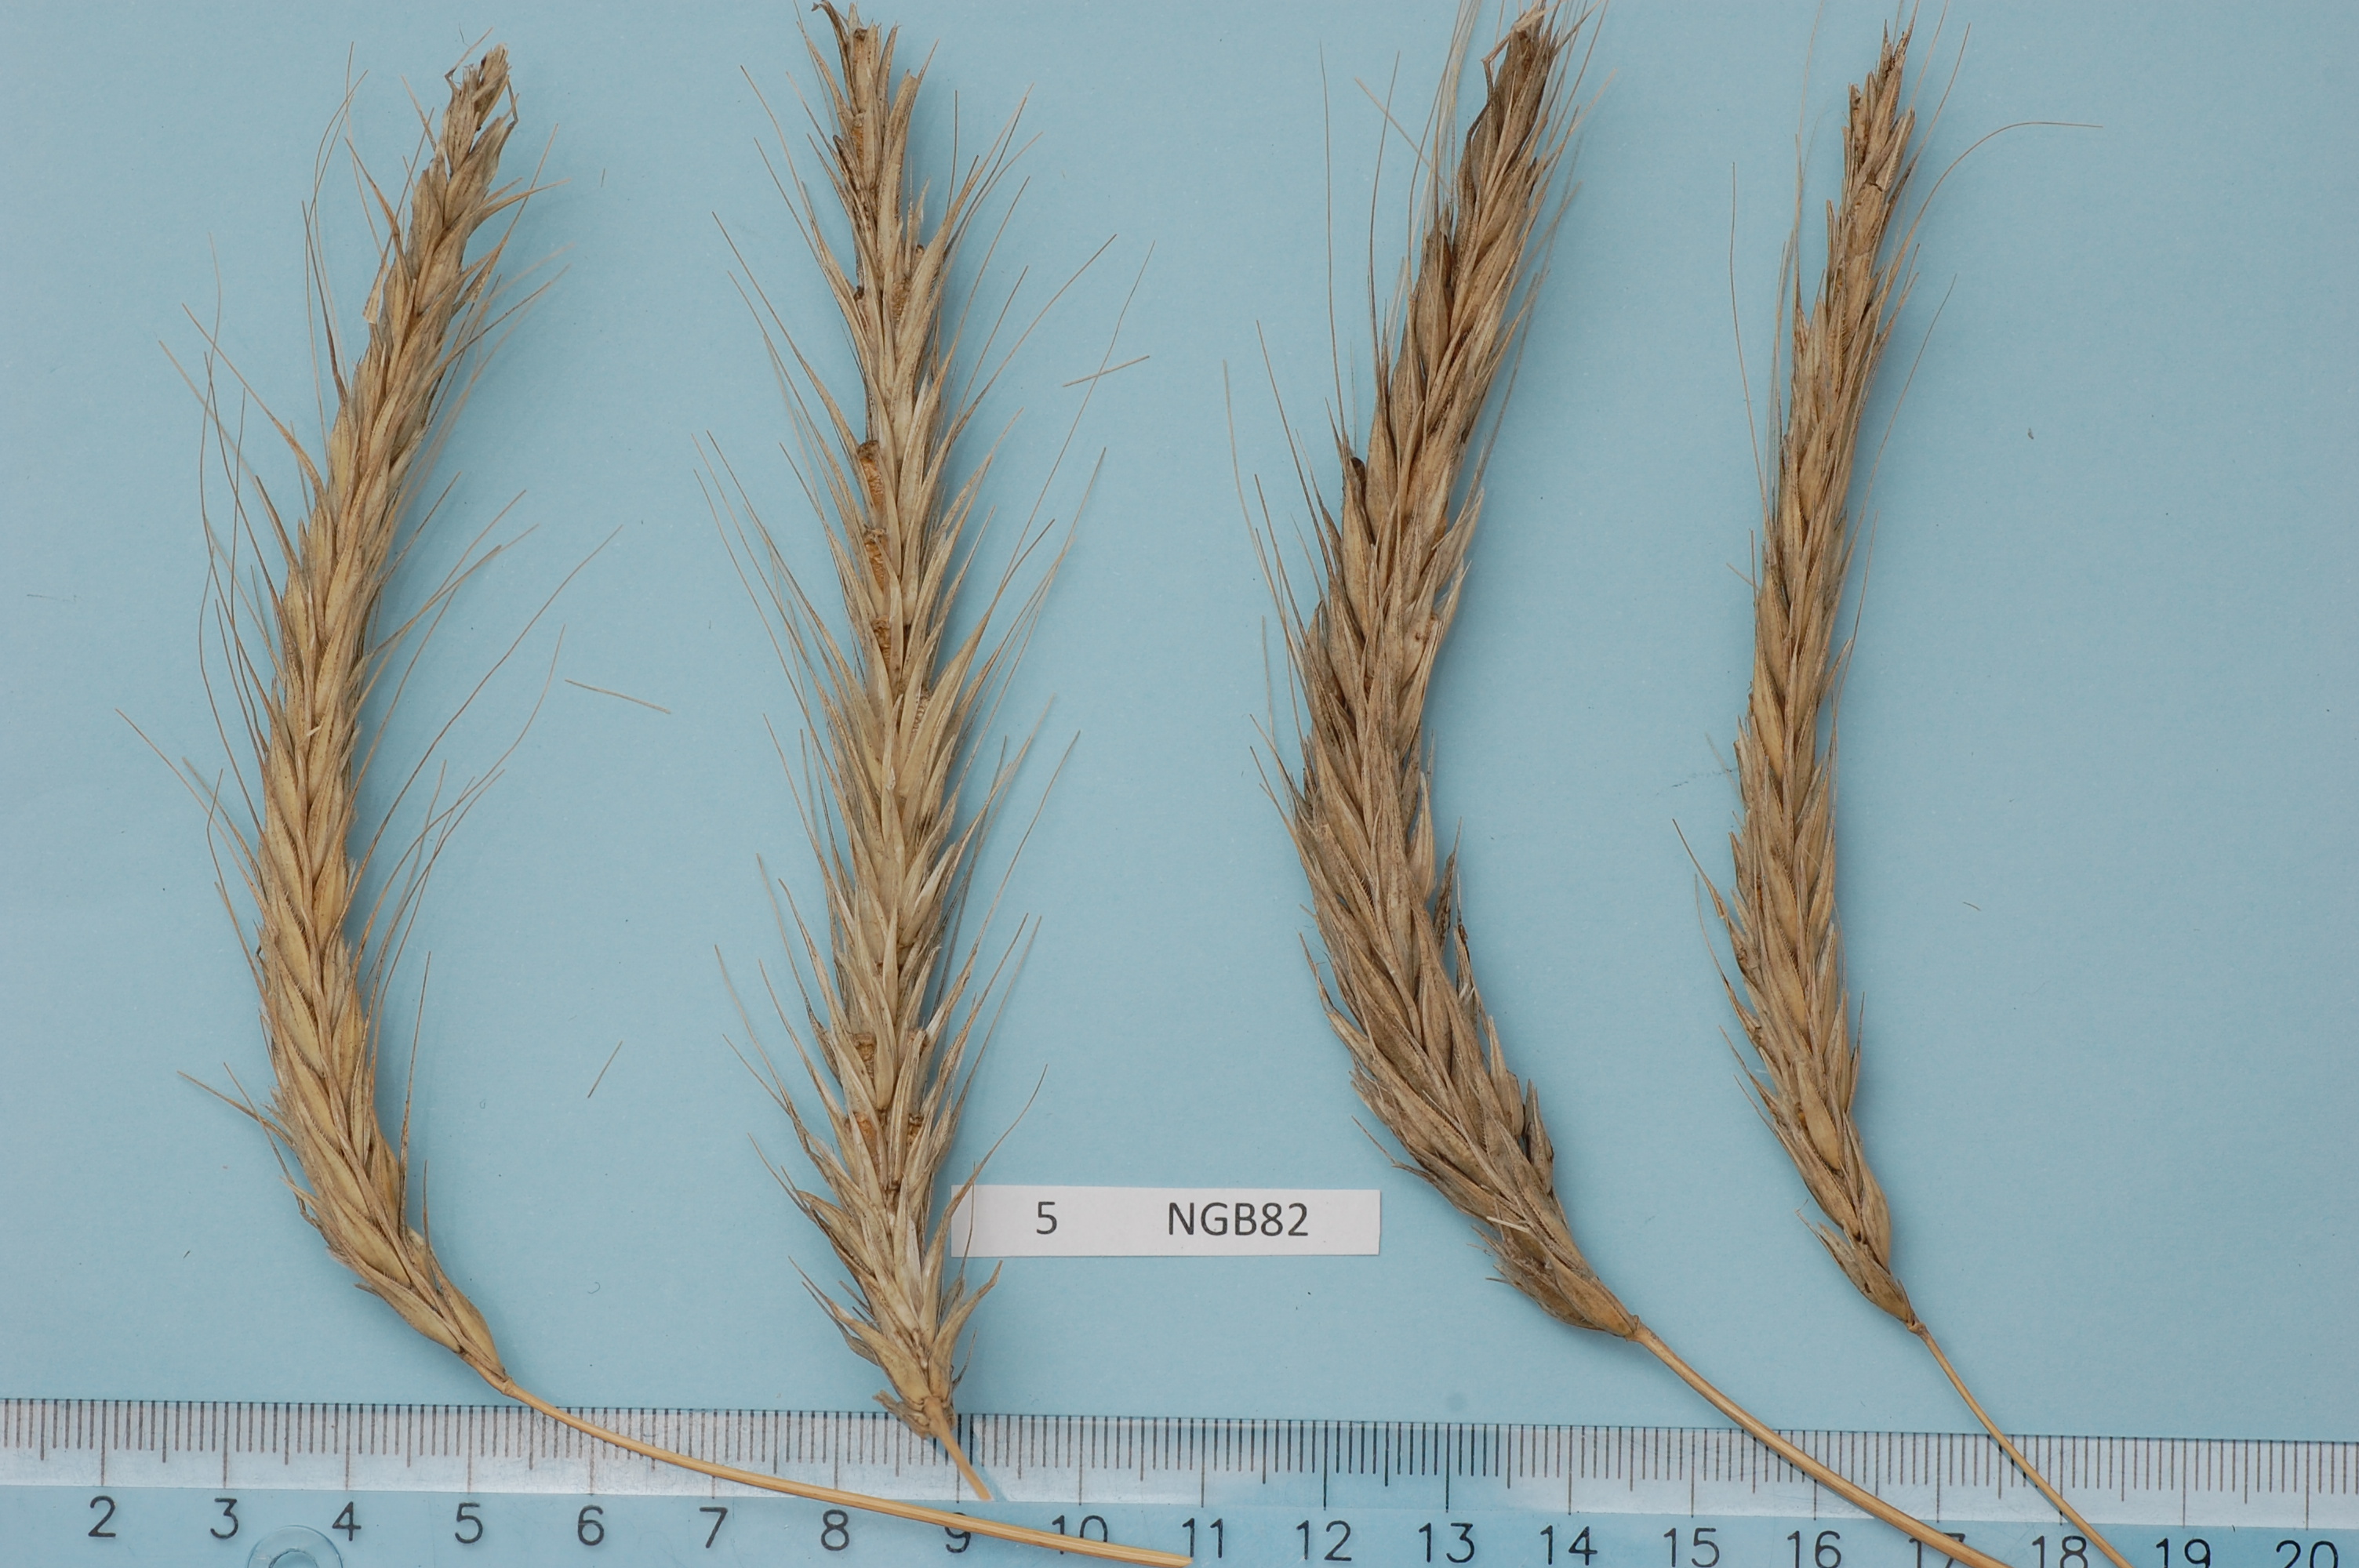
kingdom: Plantae
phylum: Tracheophyta
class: Liliopsida
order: Poales
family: Poaceae
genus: Secale
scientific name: Secale cereale
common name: Rye
